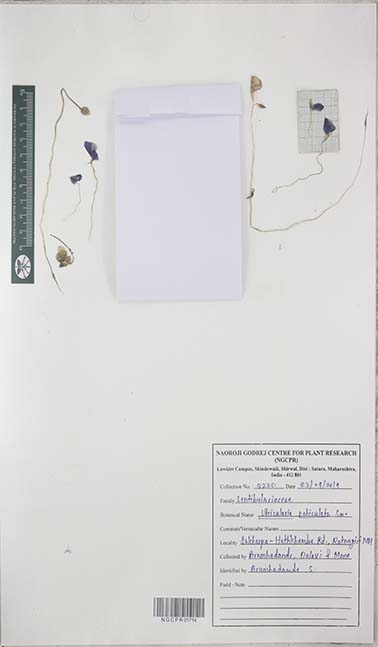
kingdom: Plantae
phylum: Tracheophyta
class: Magnoliopsida
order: Lamiales
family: Lentibulariaceae
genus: Utricularia
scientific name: Utricularia reticulata
